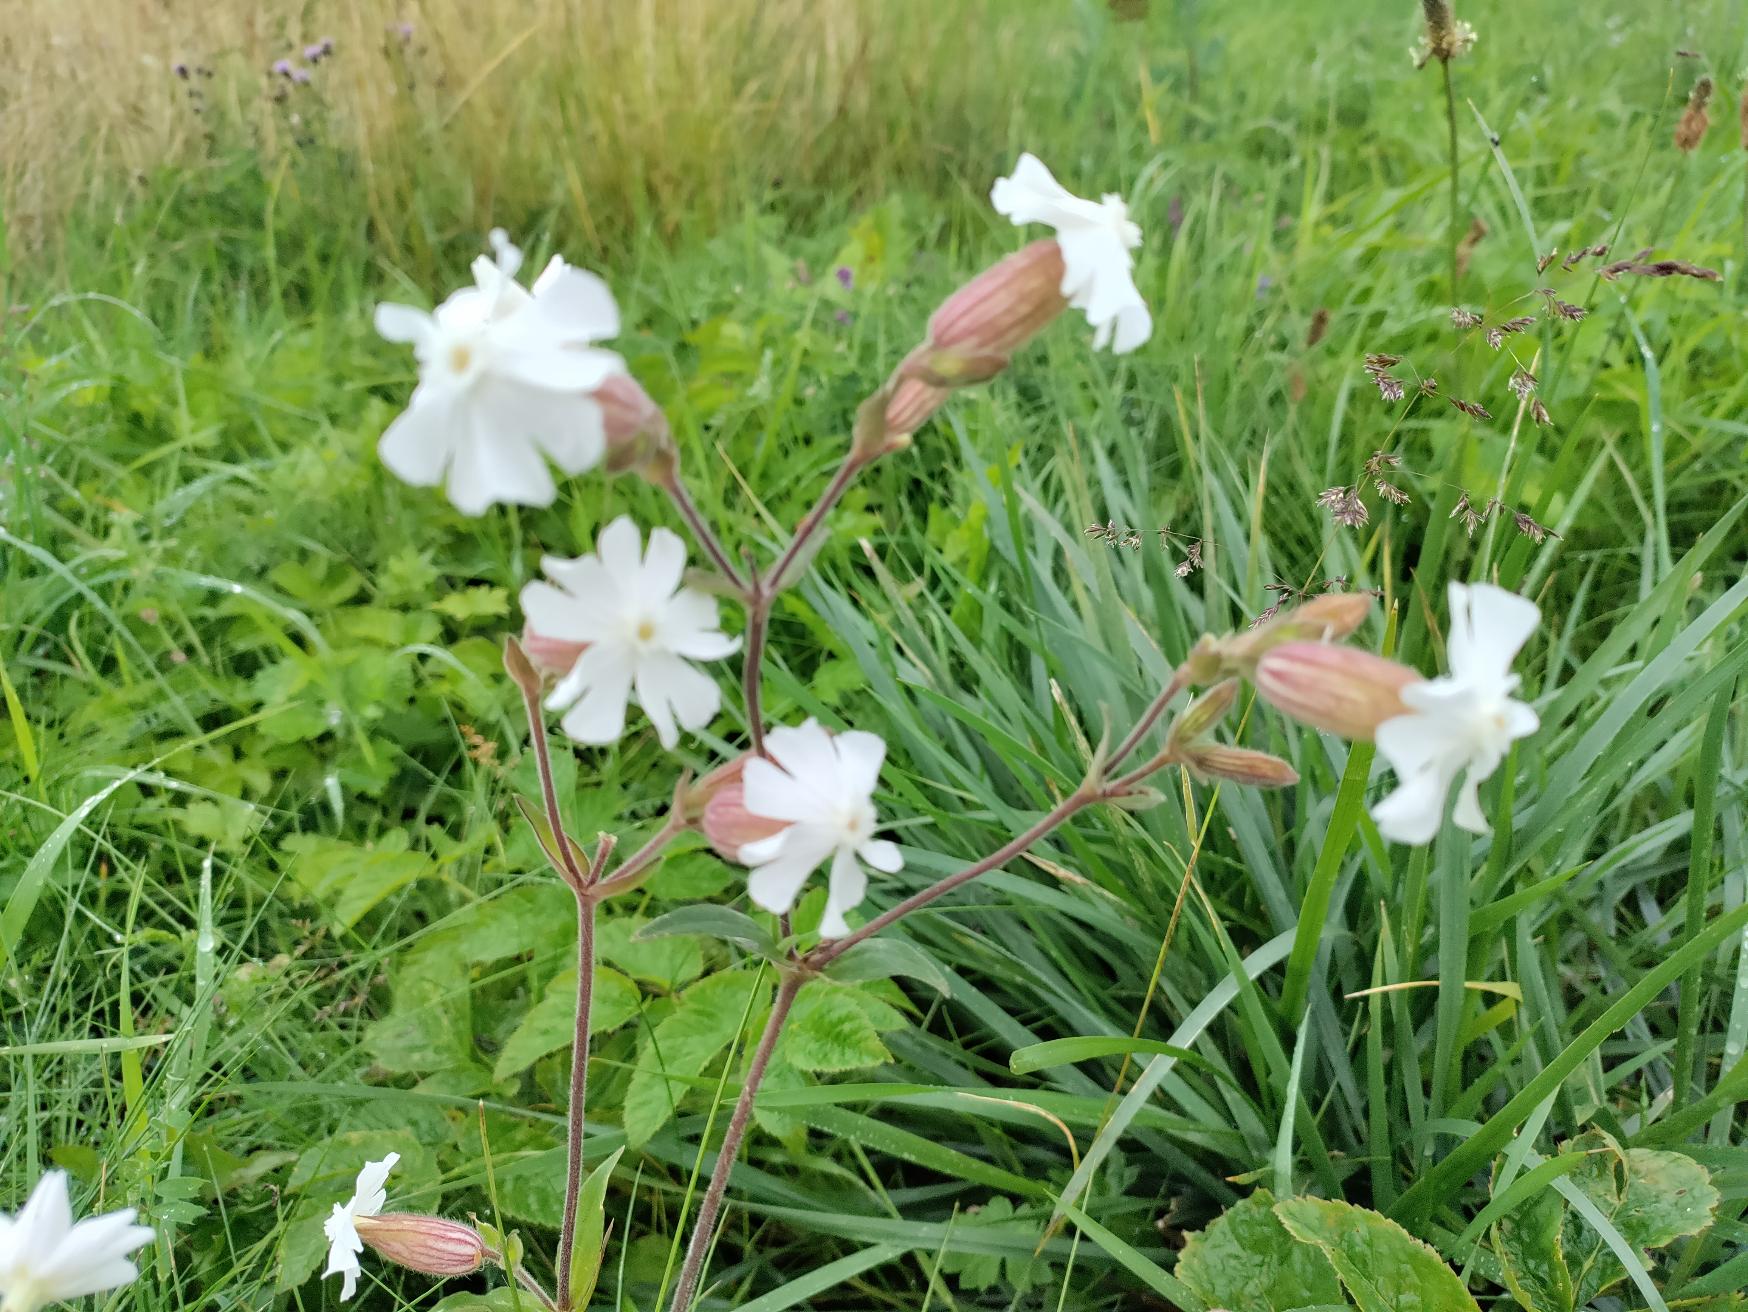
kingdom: Plantae
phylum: Tracheophyta
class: Magnoliopsida
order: Caryophyllales
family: Caryophyllaceae
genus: Silene
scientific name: Silene latifolia
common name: Aftenpragtstjerne
